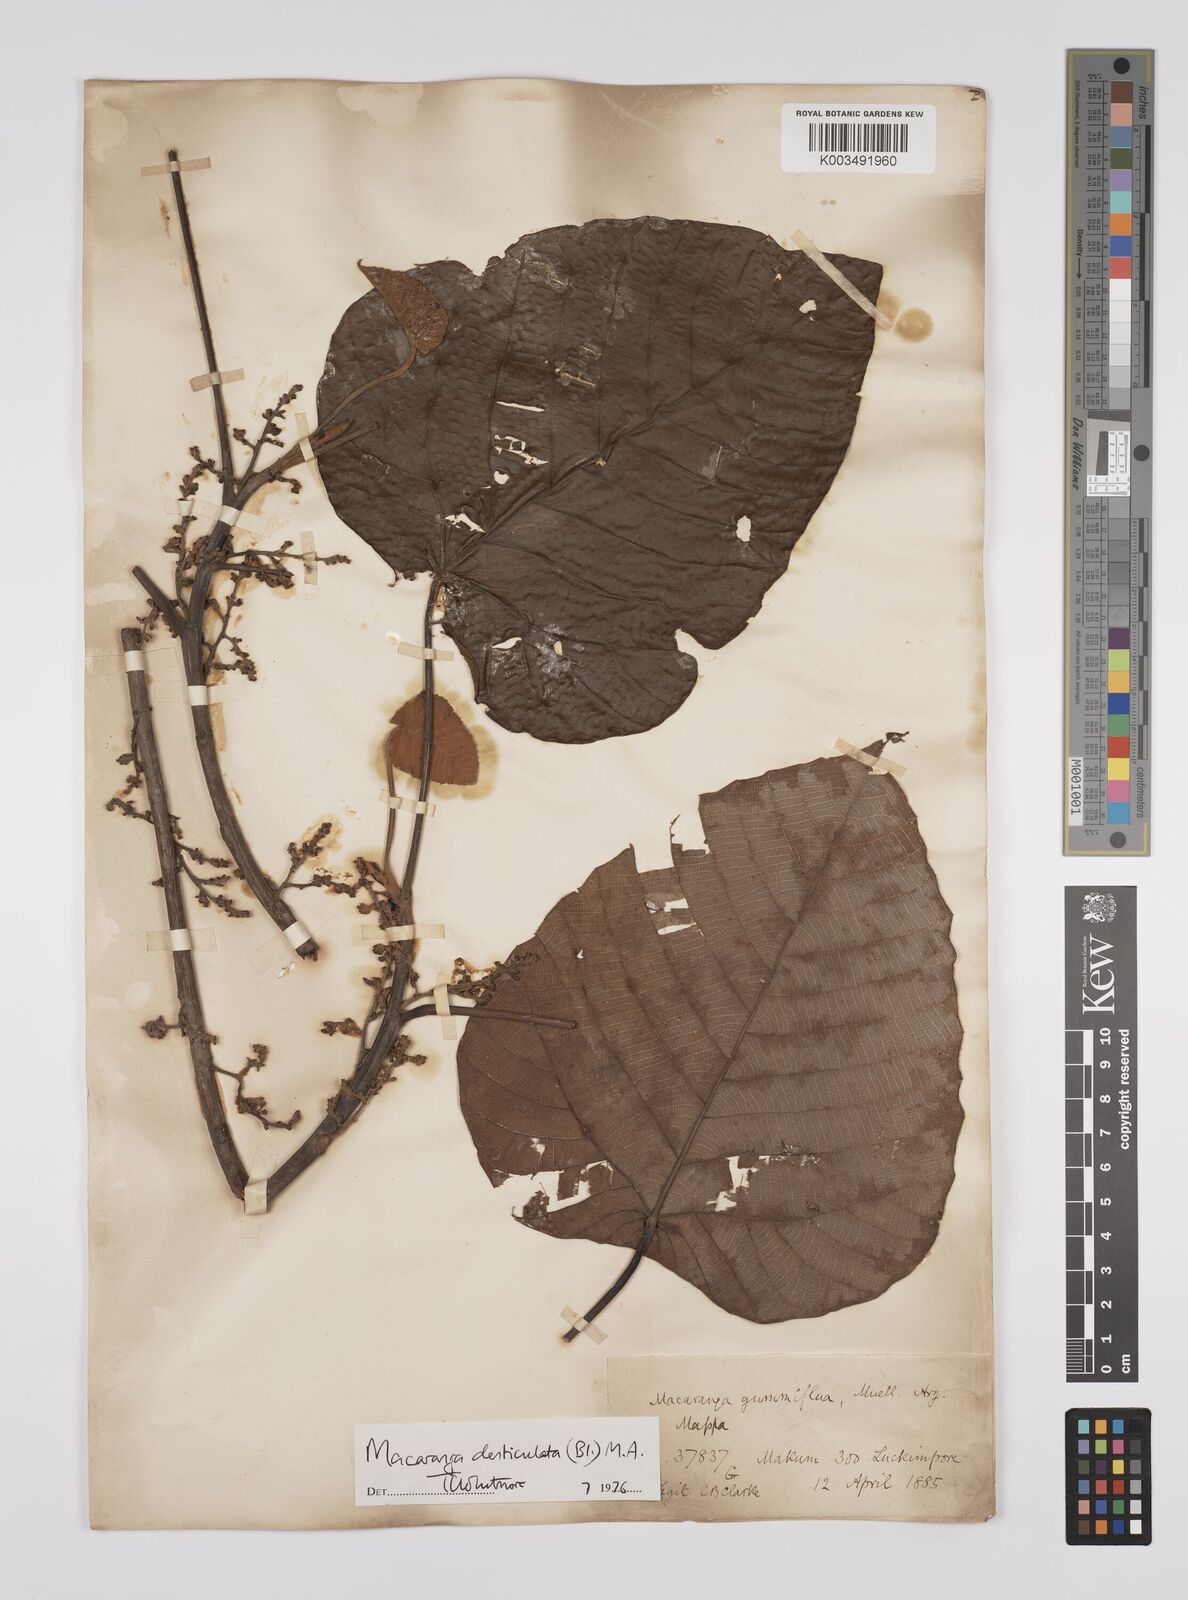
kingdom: Plantae
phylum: Tracheophyta
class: Magnoliopsida
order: Malpighiales
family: Euphorbiaceae
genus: Macaranga
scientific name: Macaranga
